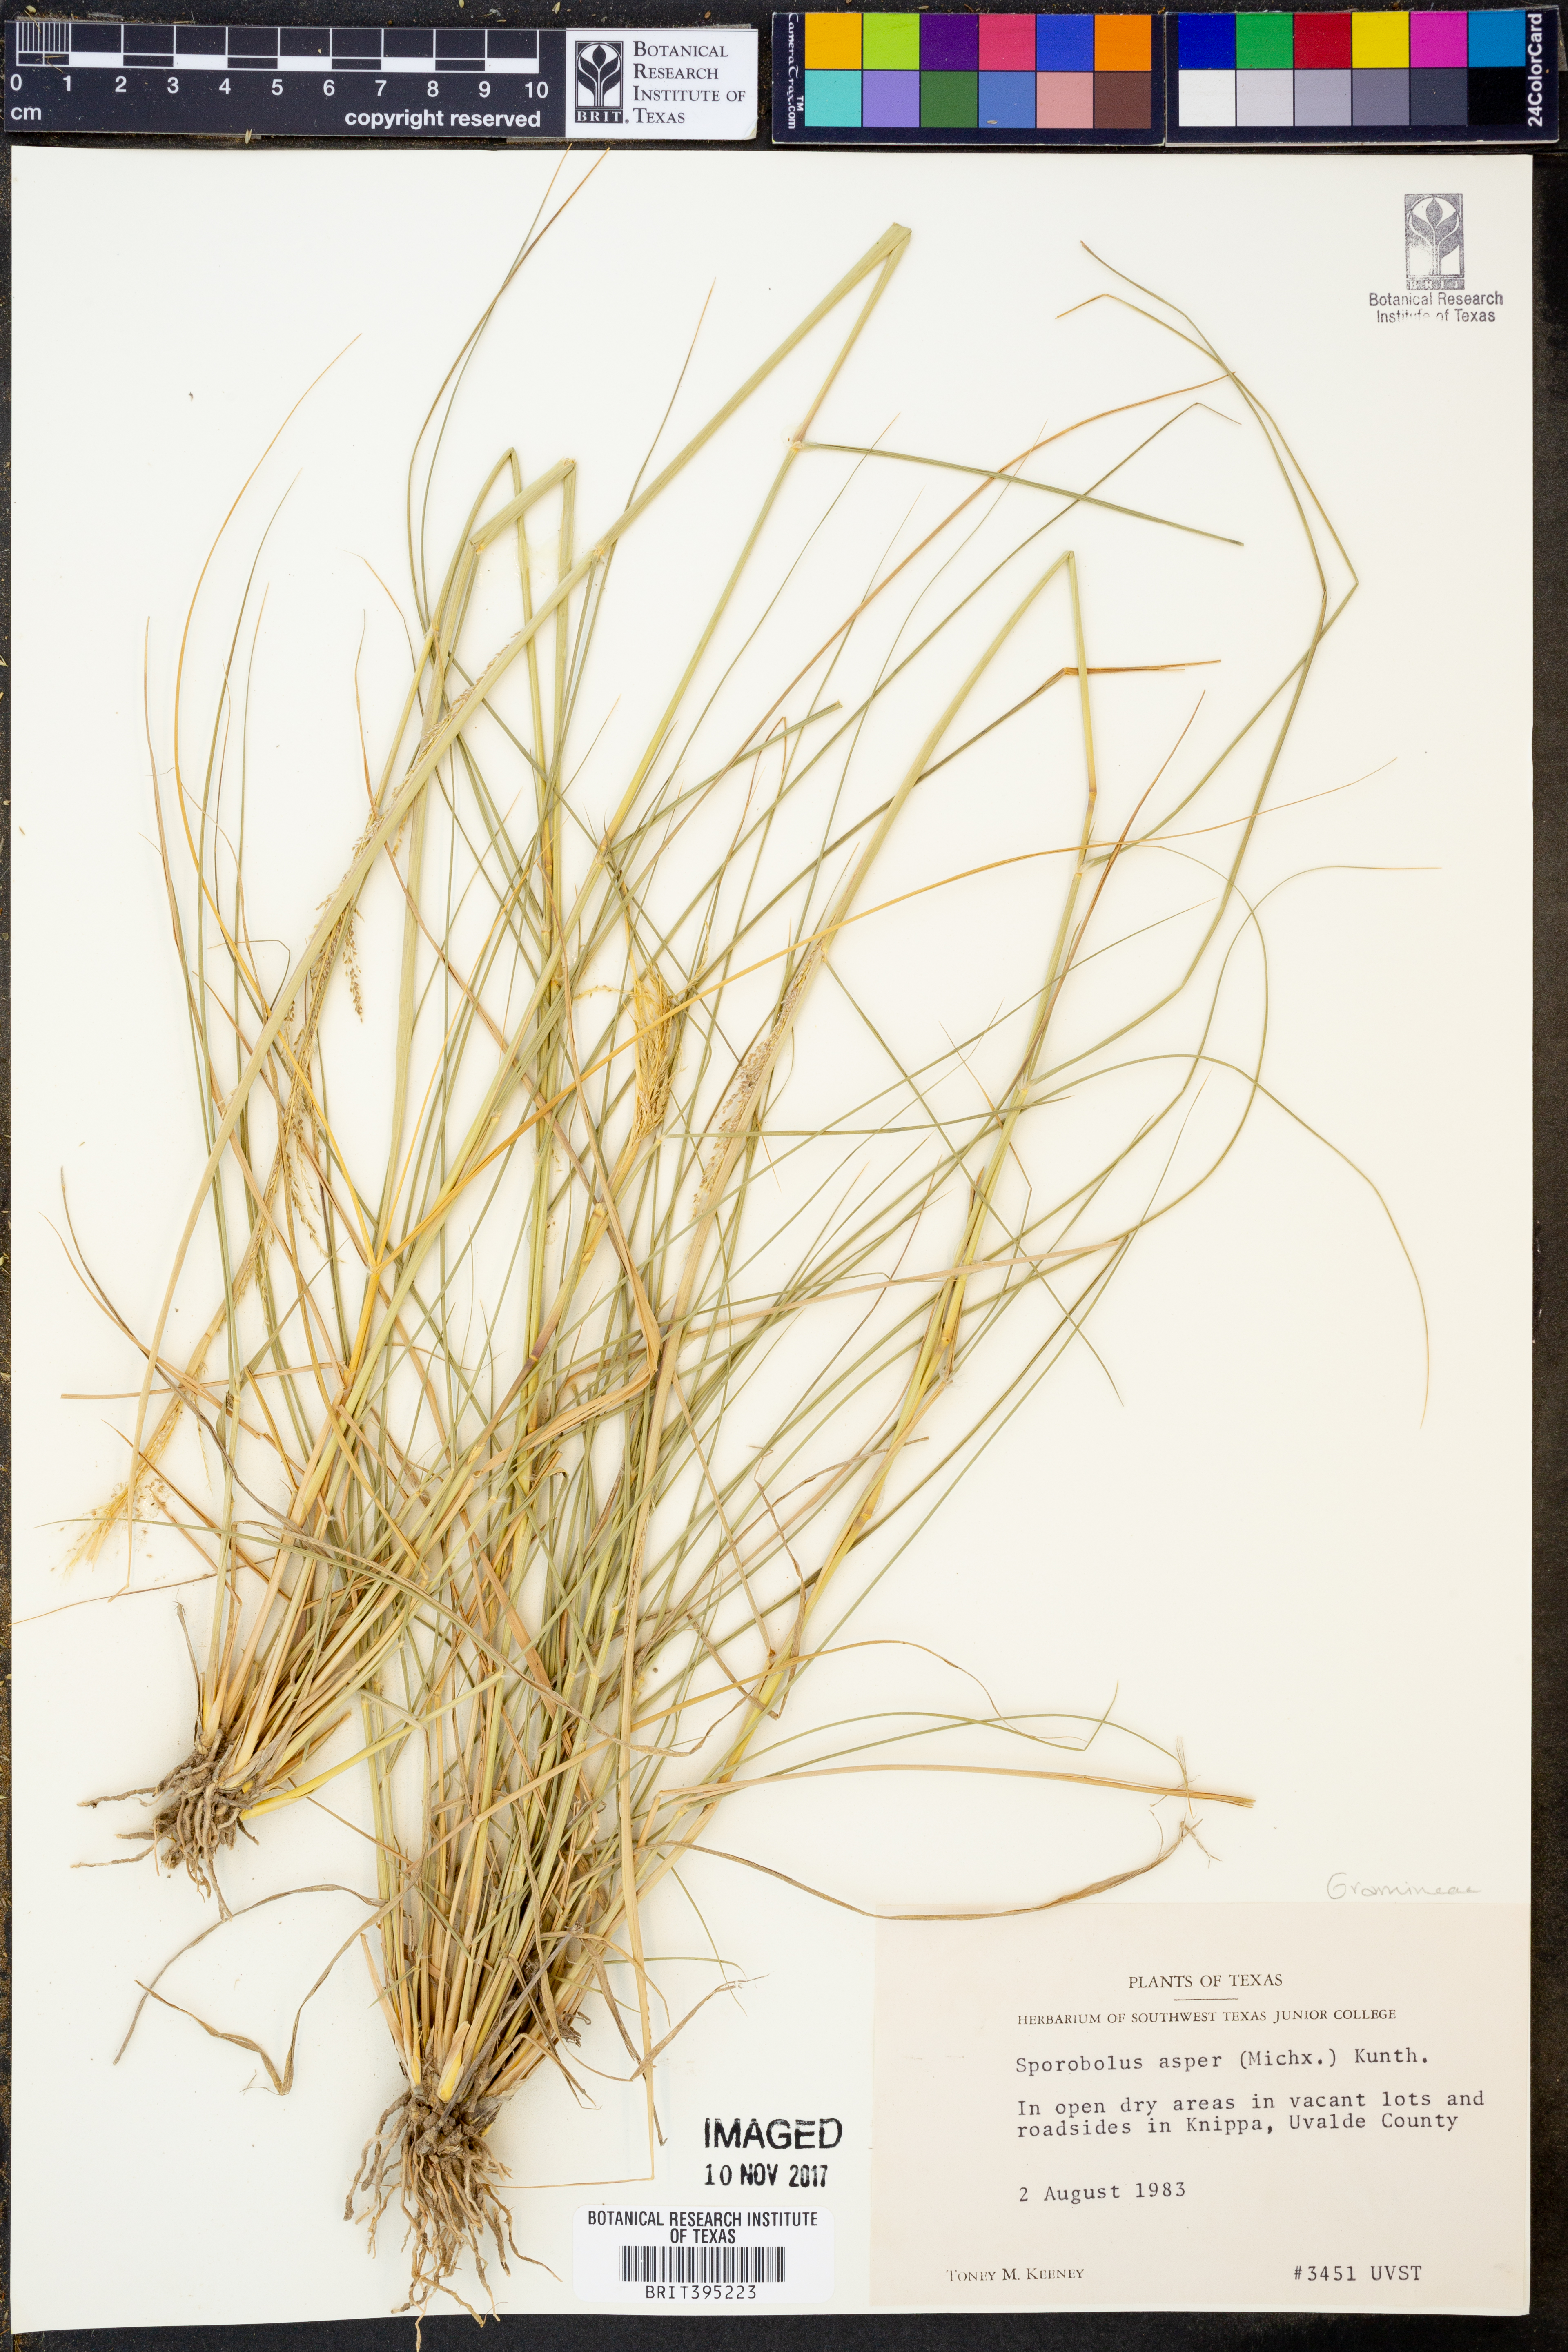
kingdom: Plantae
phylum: Tracheophyta
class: Liliopsida
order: Poales
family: Poaceae
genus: Sporobolus
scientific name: Sporobolus compositus
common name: Rough dropseed
